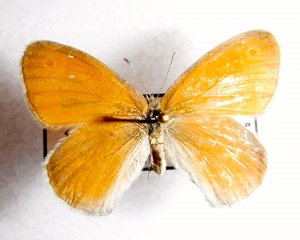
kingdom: Animalia
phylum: Arthropoda
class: Insecta
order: Lepidoptera
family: Nymphalidae
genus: Coenonympha
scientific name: Coenonympha tullia
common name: Large Heath
